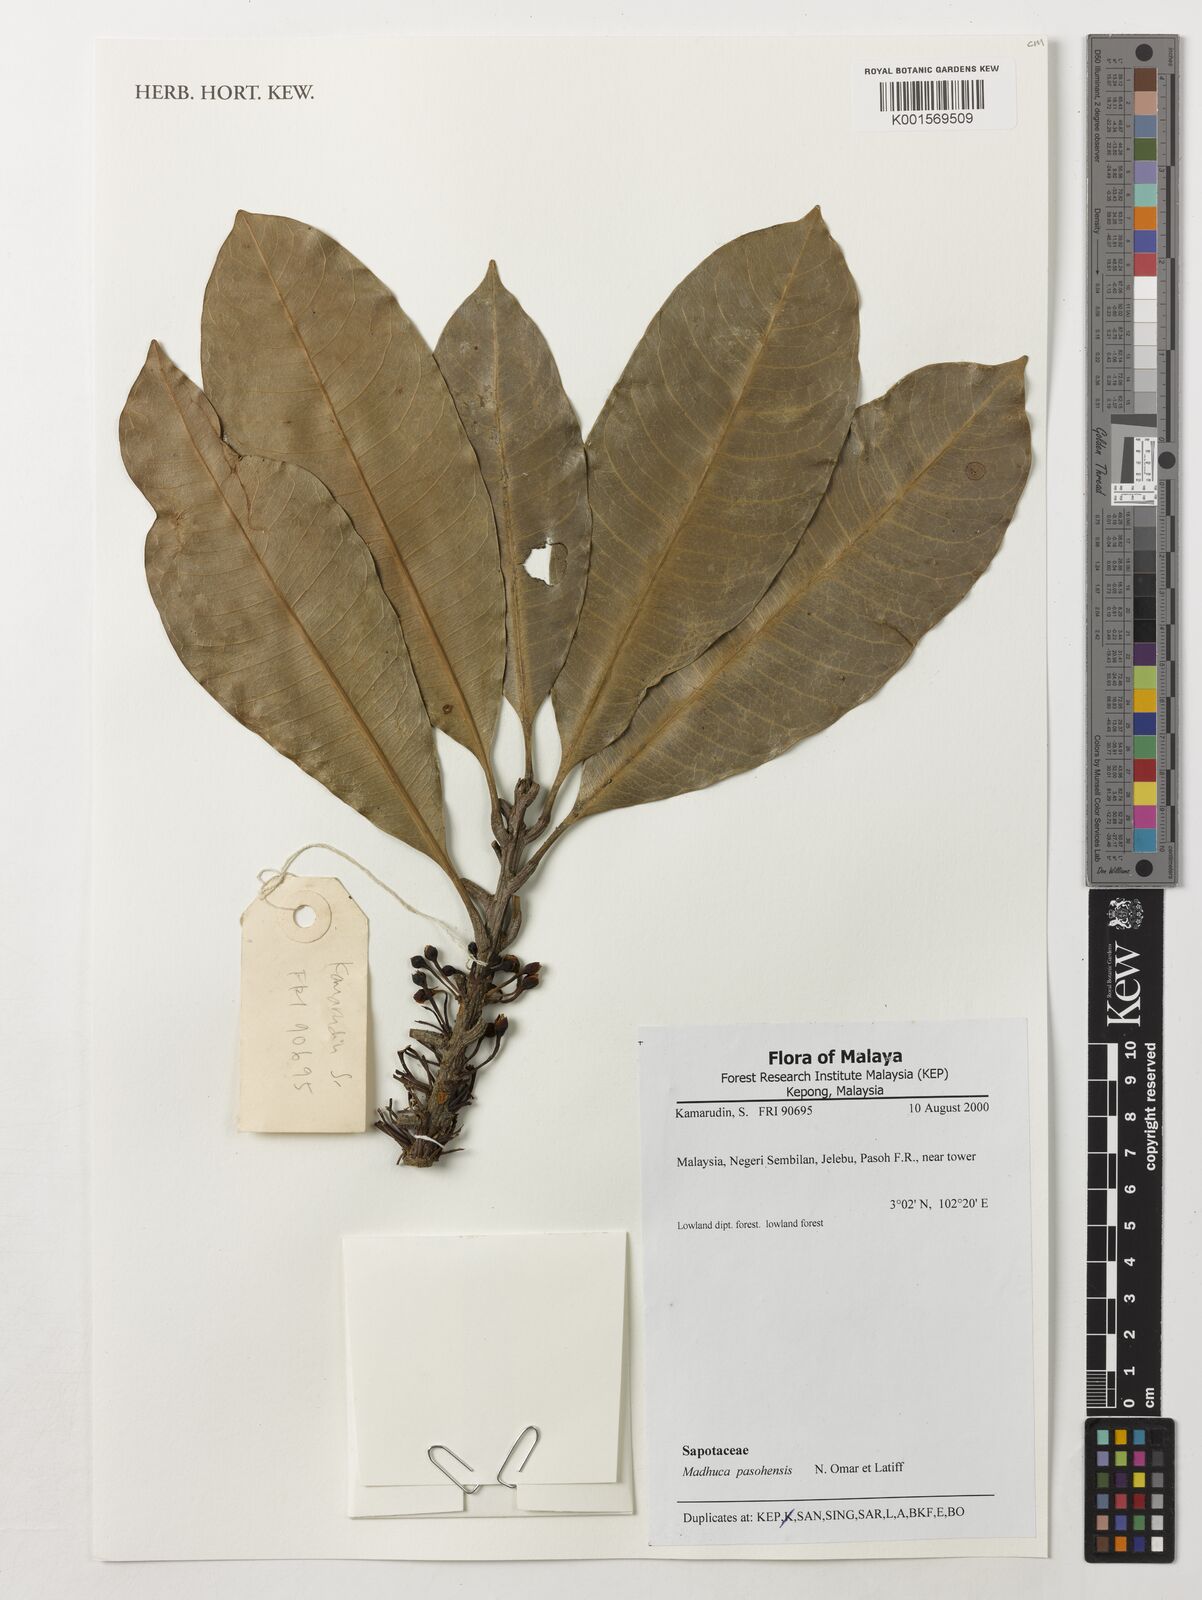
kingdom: Plantae
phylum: Tracheophyta
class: Magnoliopsida
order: Ericales
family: Sapotaceae
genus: Madhuca
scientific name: Madhuca pasquieri
